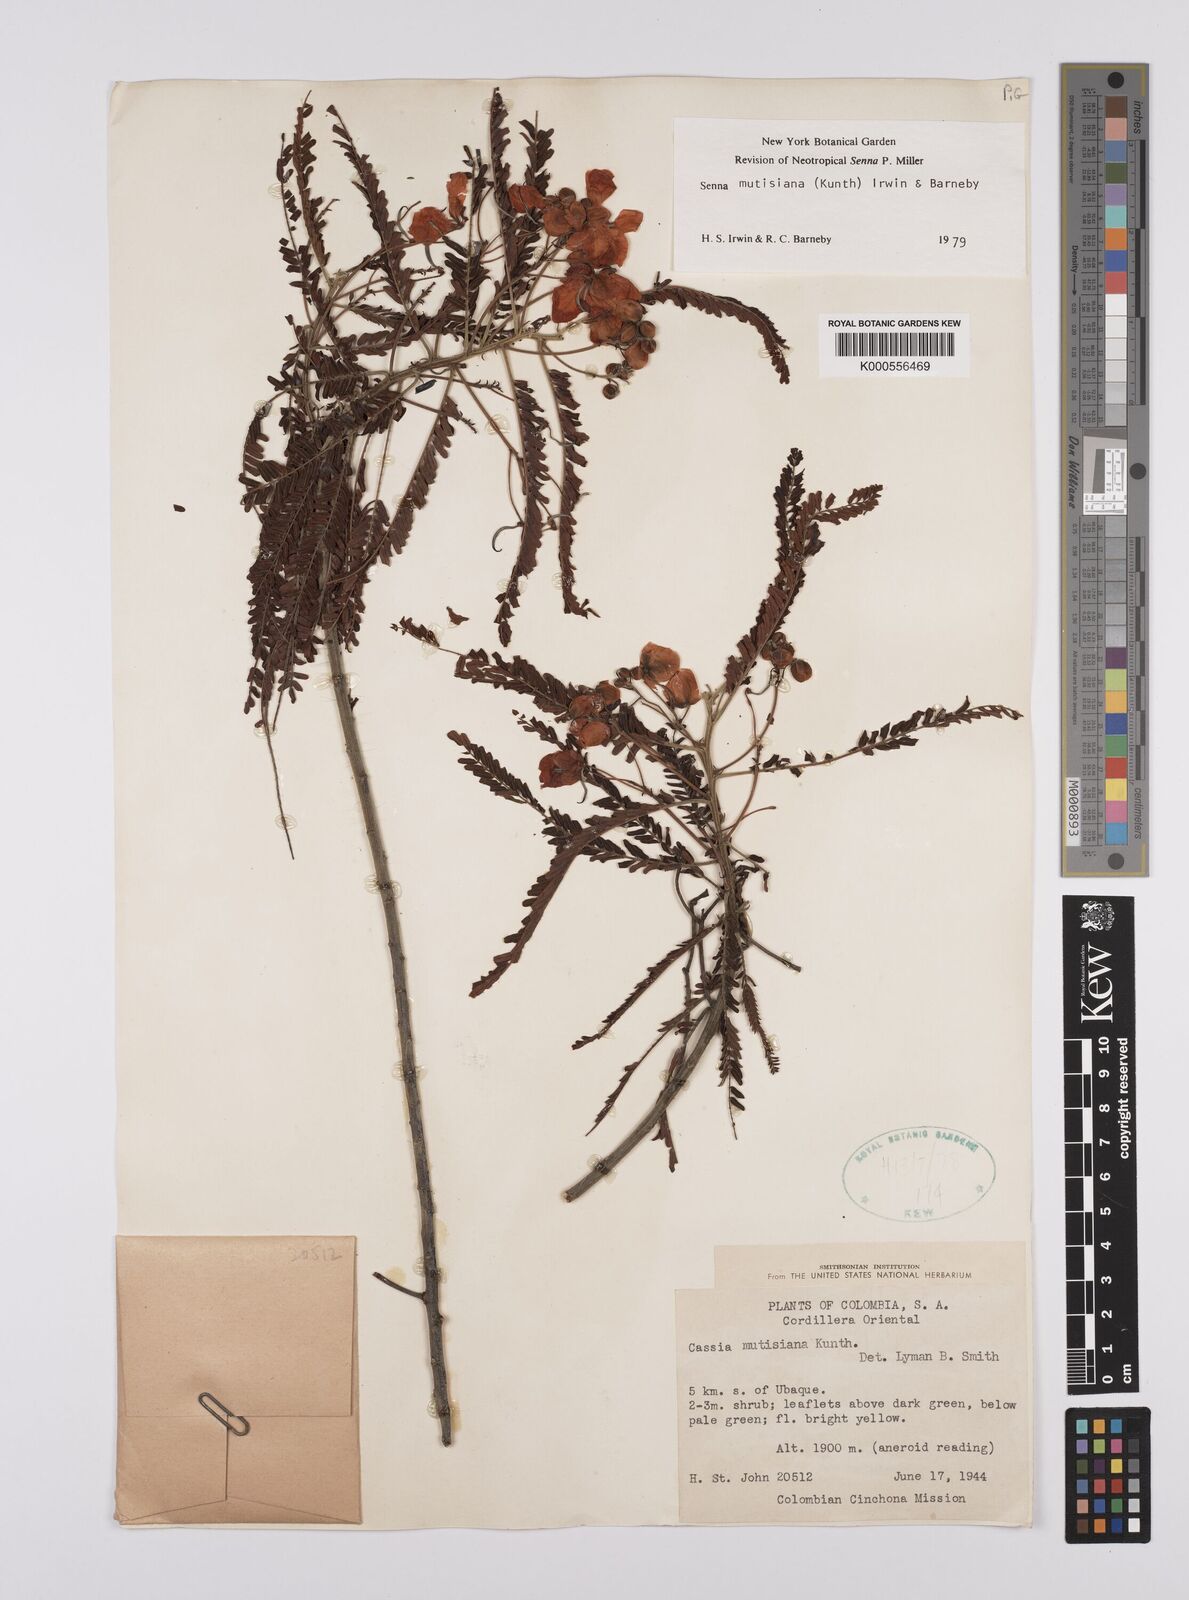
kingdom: Plantae
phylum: Tracheophyta
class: Magnoliopsida
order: Fabales
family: Fabaceae
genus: Senna
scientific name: Senna mutisiana
